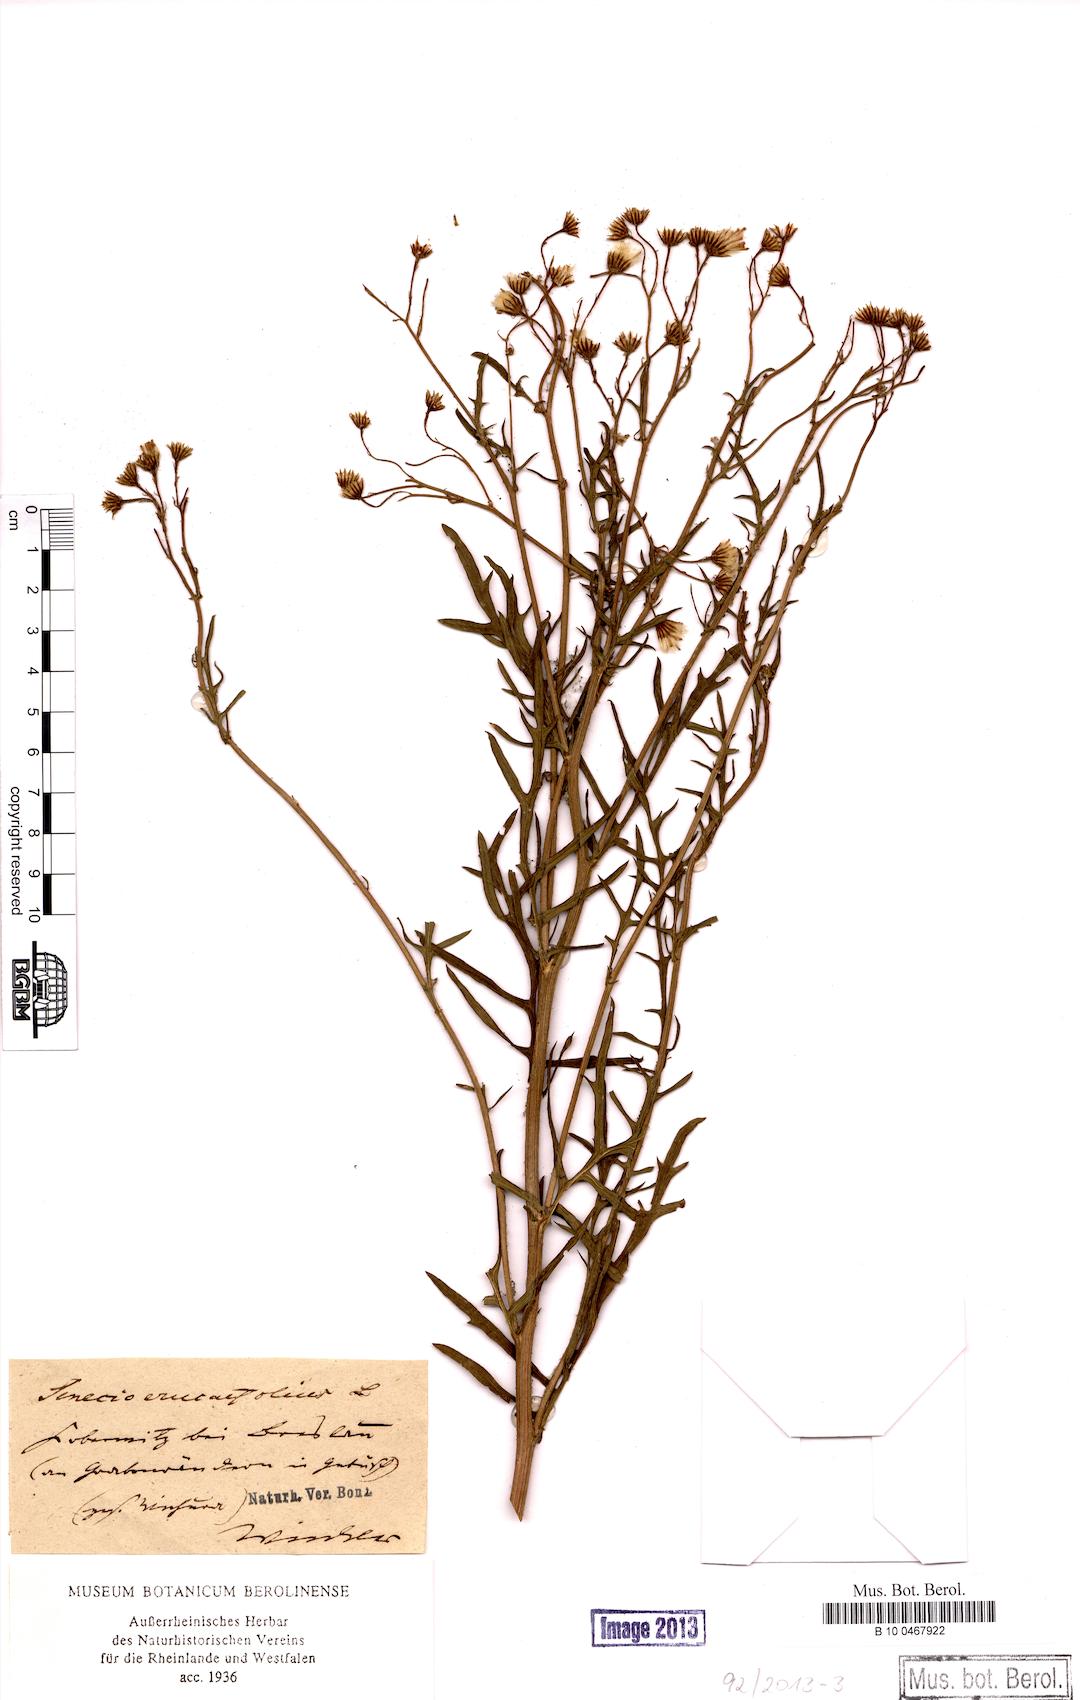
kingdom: Plantae
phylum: Tracheophyta
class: Magnoliopsida
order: Asterales
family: Asteraceae
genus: Jacobaea
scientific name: Jacobaea erucifolia
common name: Hoary ragwort
